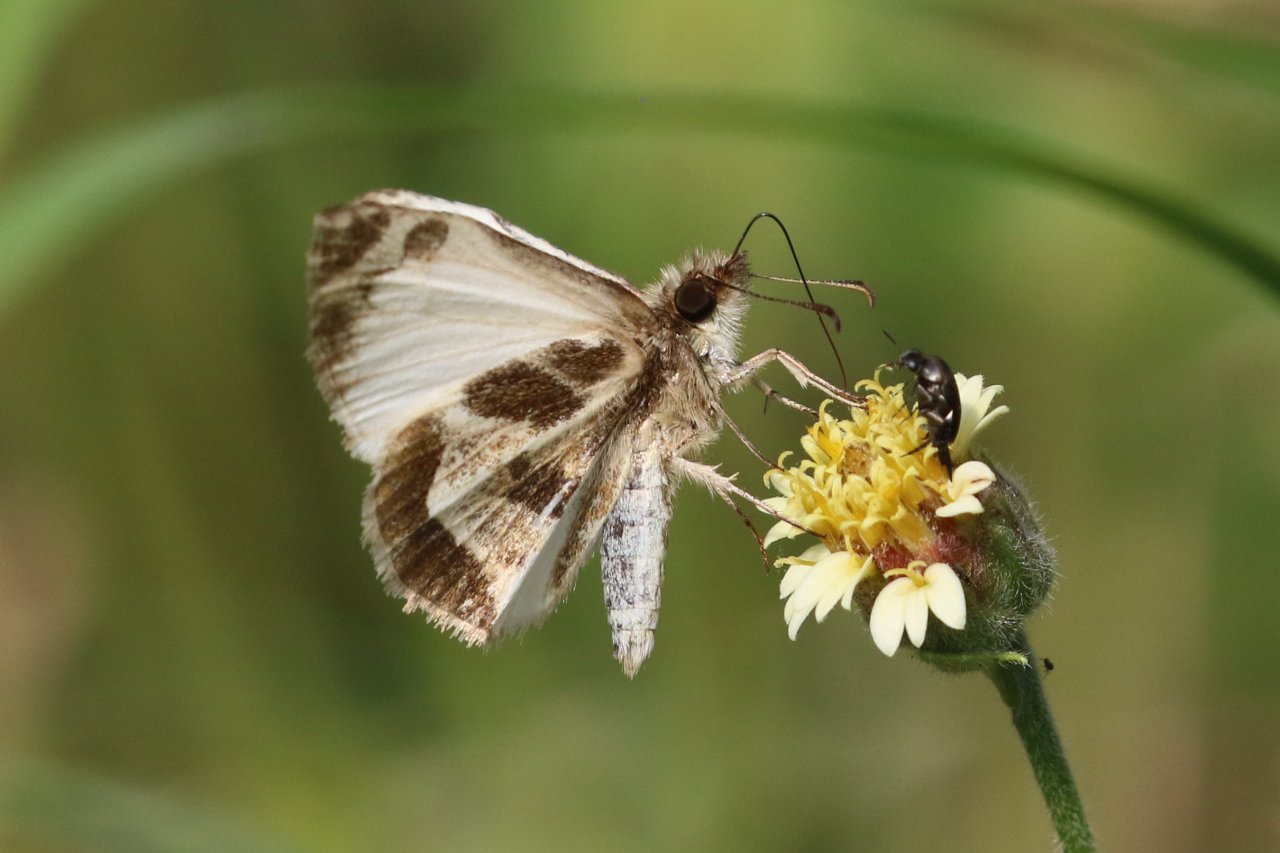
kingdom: Animalia
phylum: Arthropoda
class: Insecta
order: Lepidoptera
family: Hesperiidae
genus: Heliopetes
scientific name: Heliopetes macaira
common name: Turk's-cap White-Skipper
